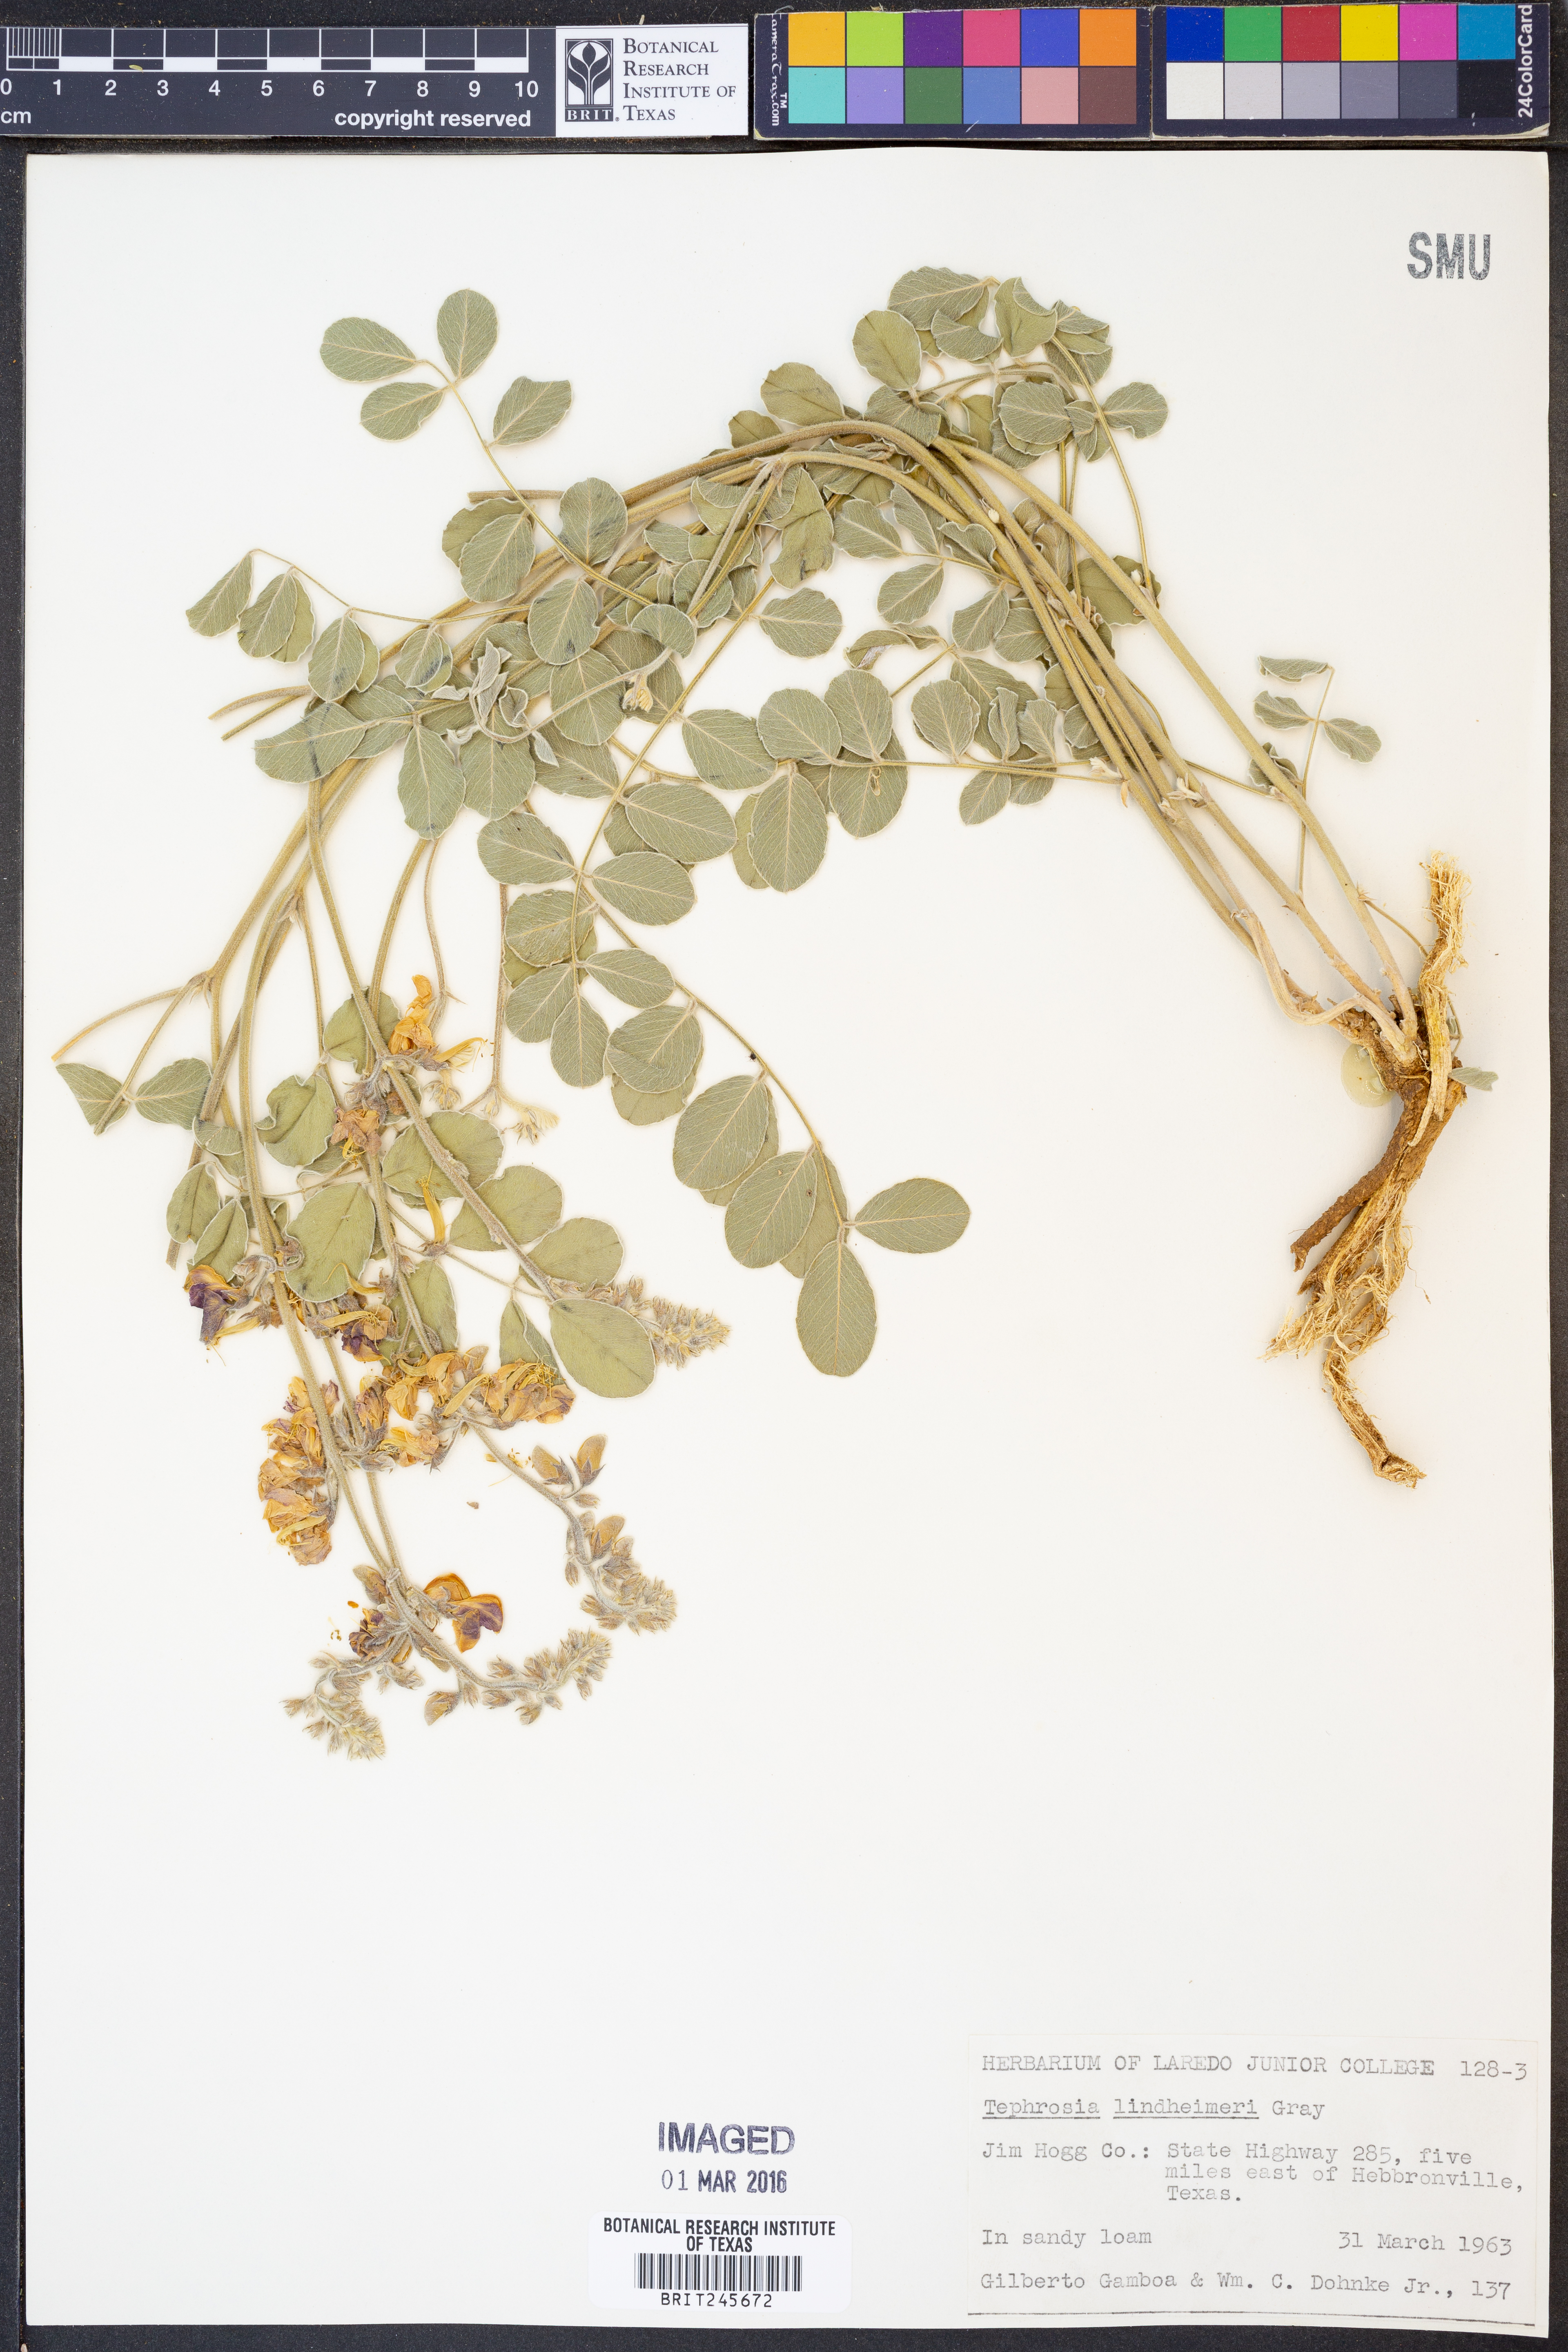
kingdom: Plantae
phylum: Tracheophyta
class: Magnoliopsida
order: Fabales
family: Fabaceae
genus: Tephrosia
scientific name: Tephrosia lindheimeri
